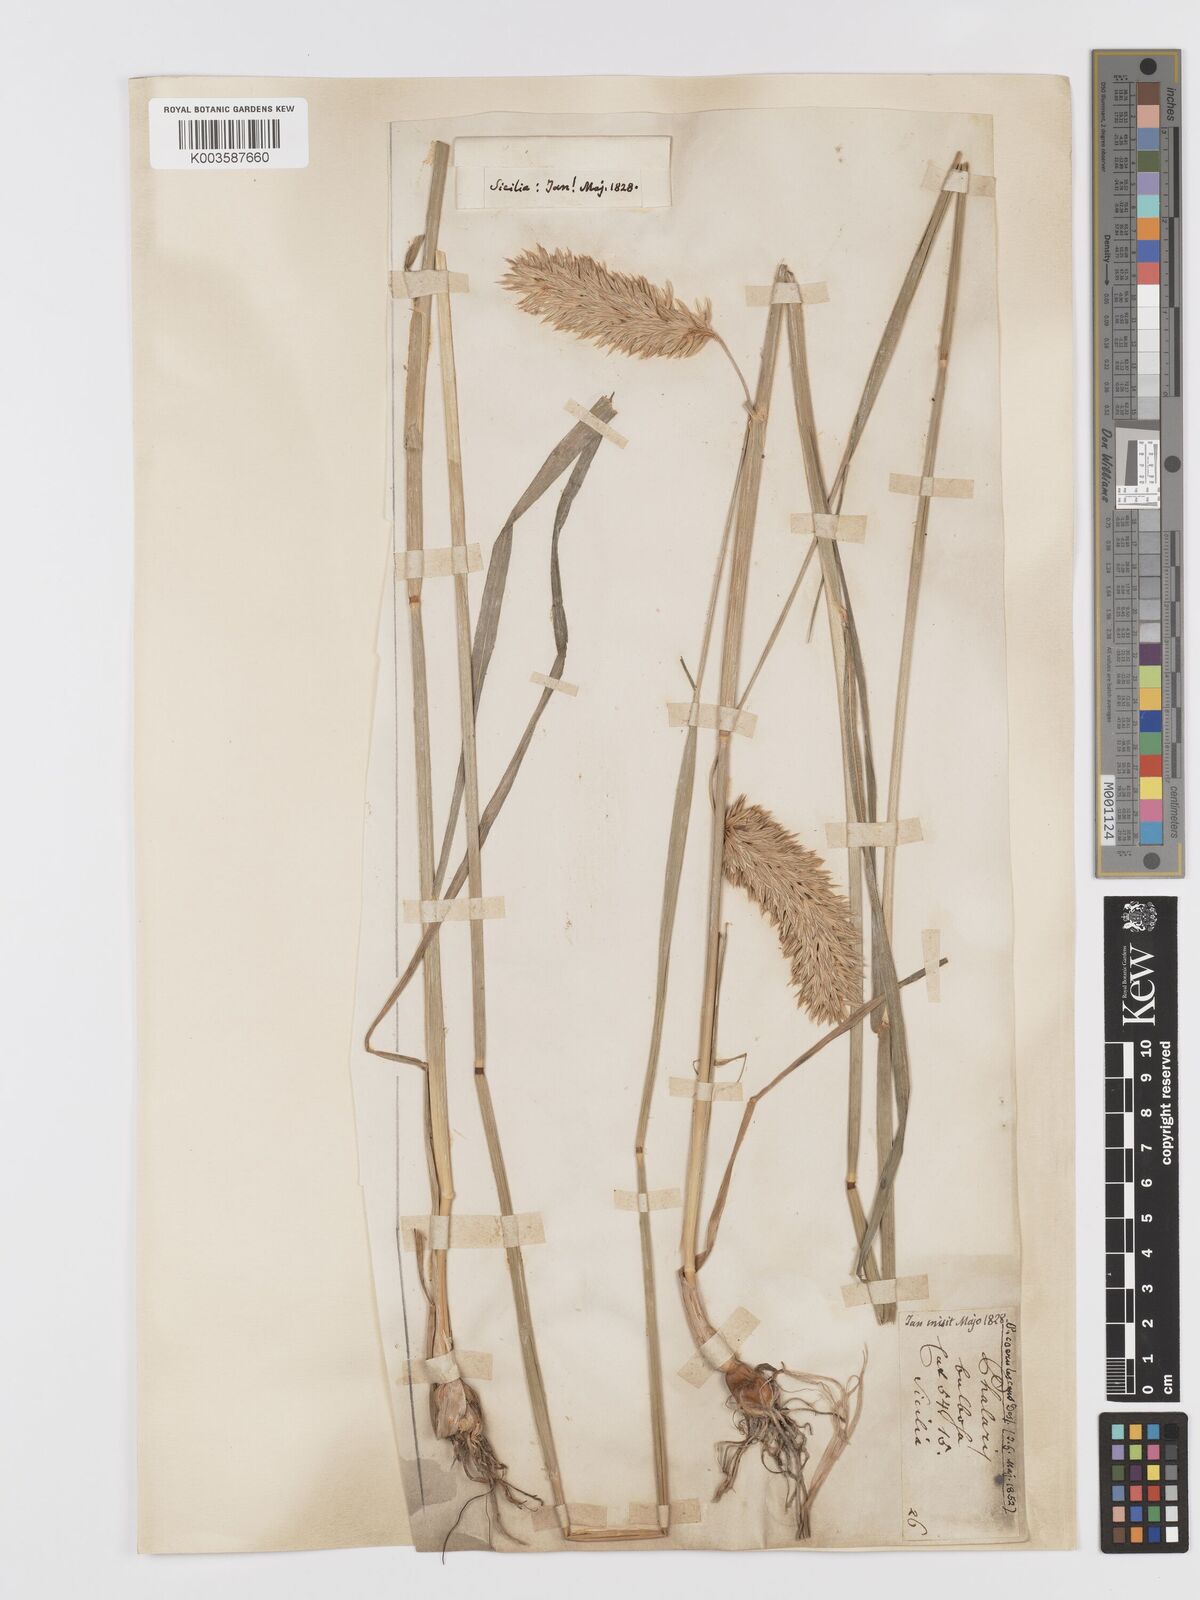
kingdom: Plantae
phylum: Tracheophyta
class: Liliopsida
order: Poales
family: Poaceae
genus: Phalaris
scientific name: Phalaris coerulescens
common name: Sunolgrass
